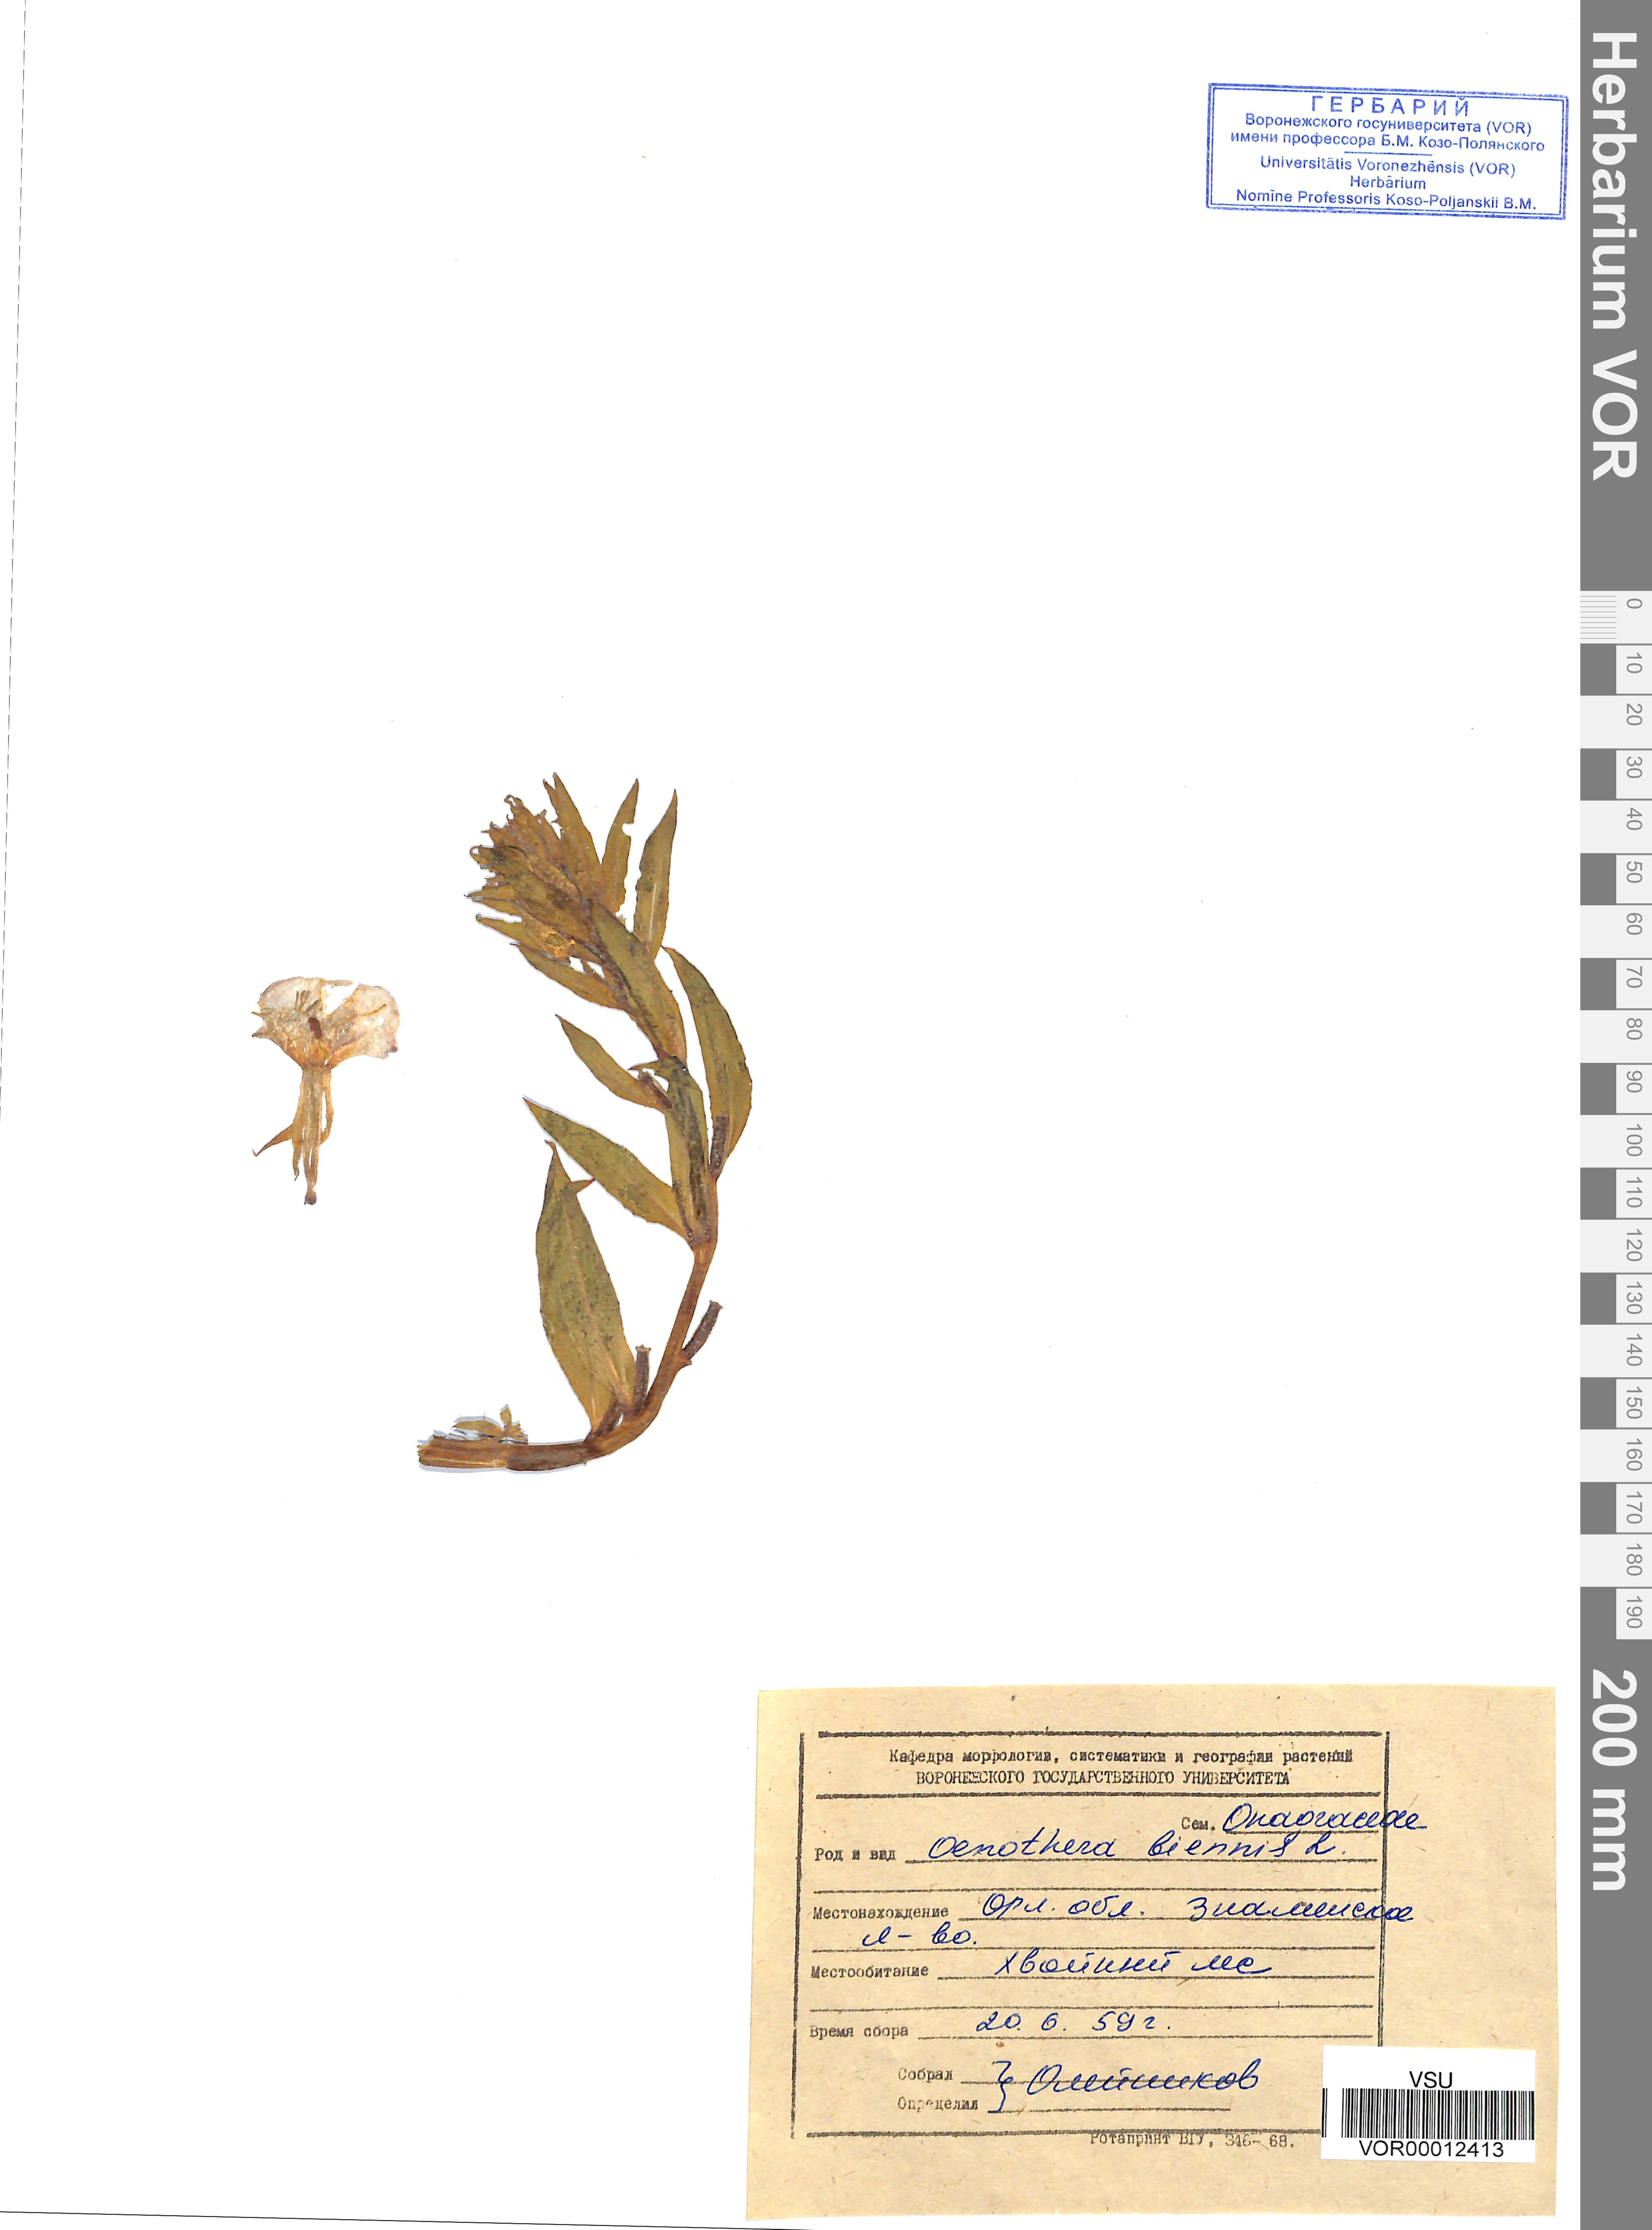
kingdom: Plantae
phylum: Tracheophyta
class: Magnoliopsida
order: Myrtales
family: Onagraceae
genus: Oenothera
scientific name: Oenothera biennis
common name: Common evening-primrose
